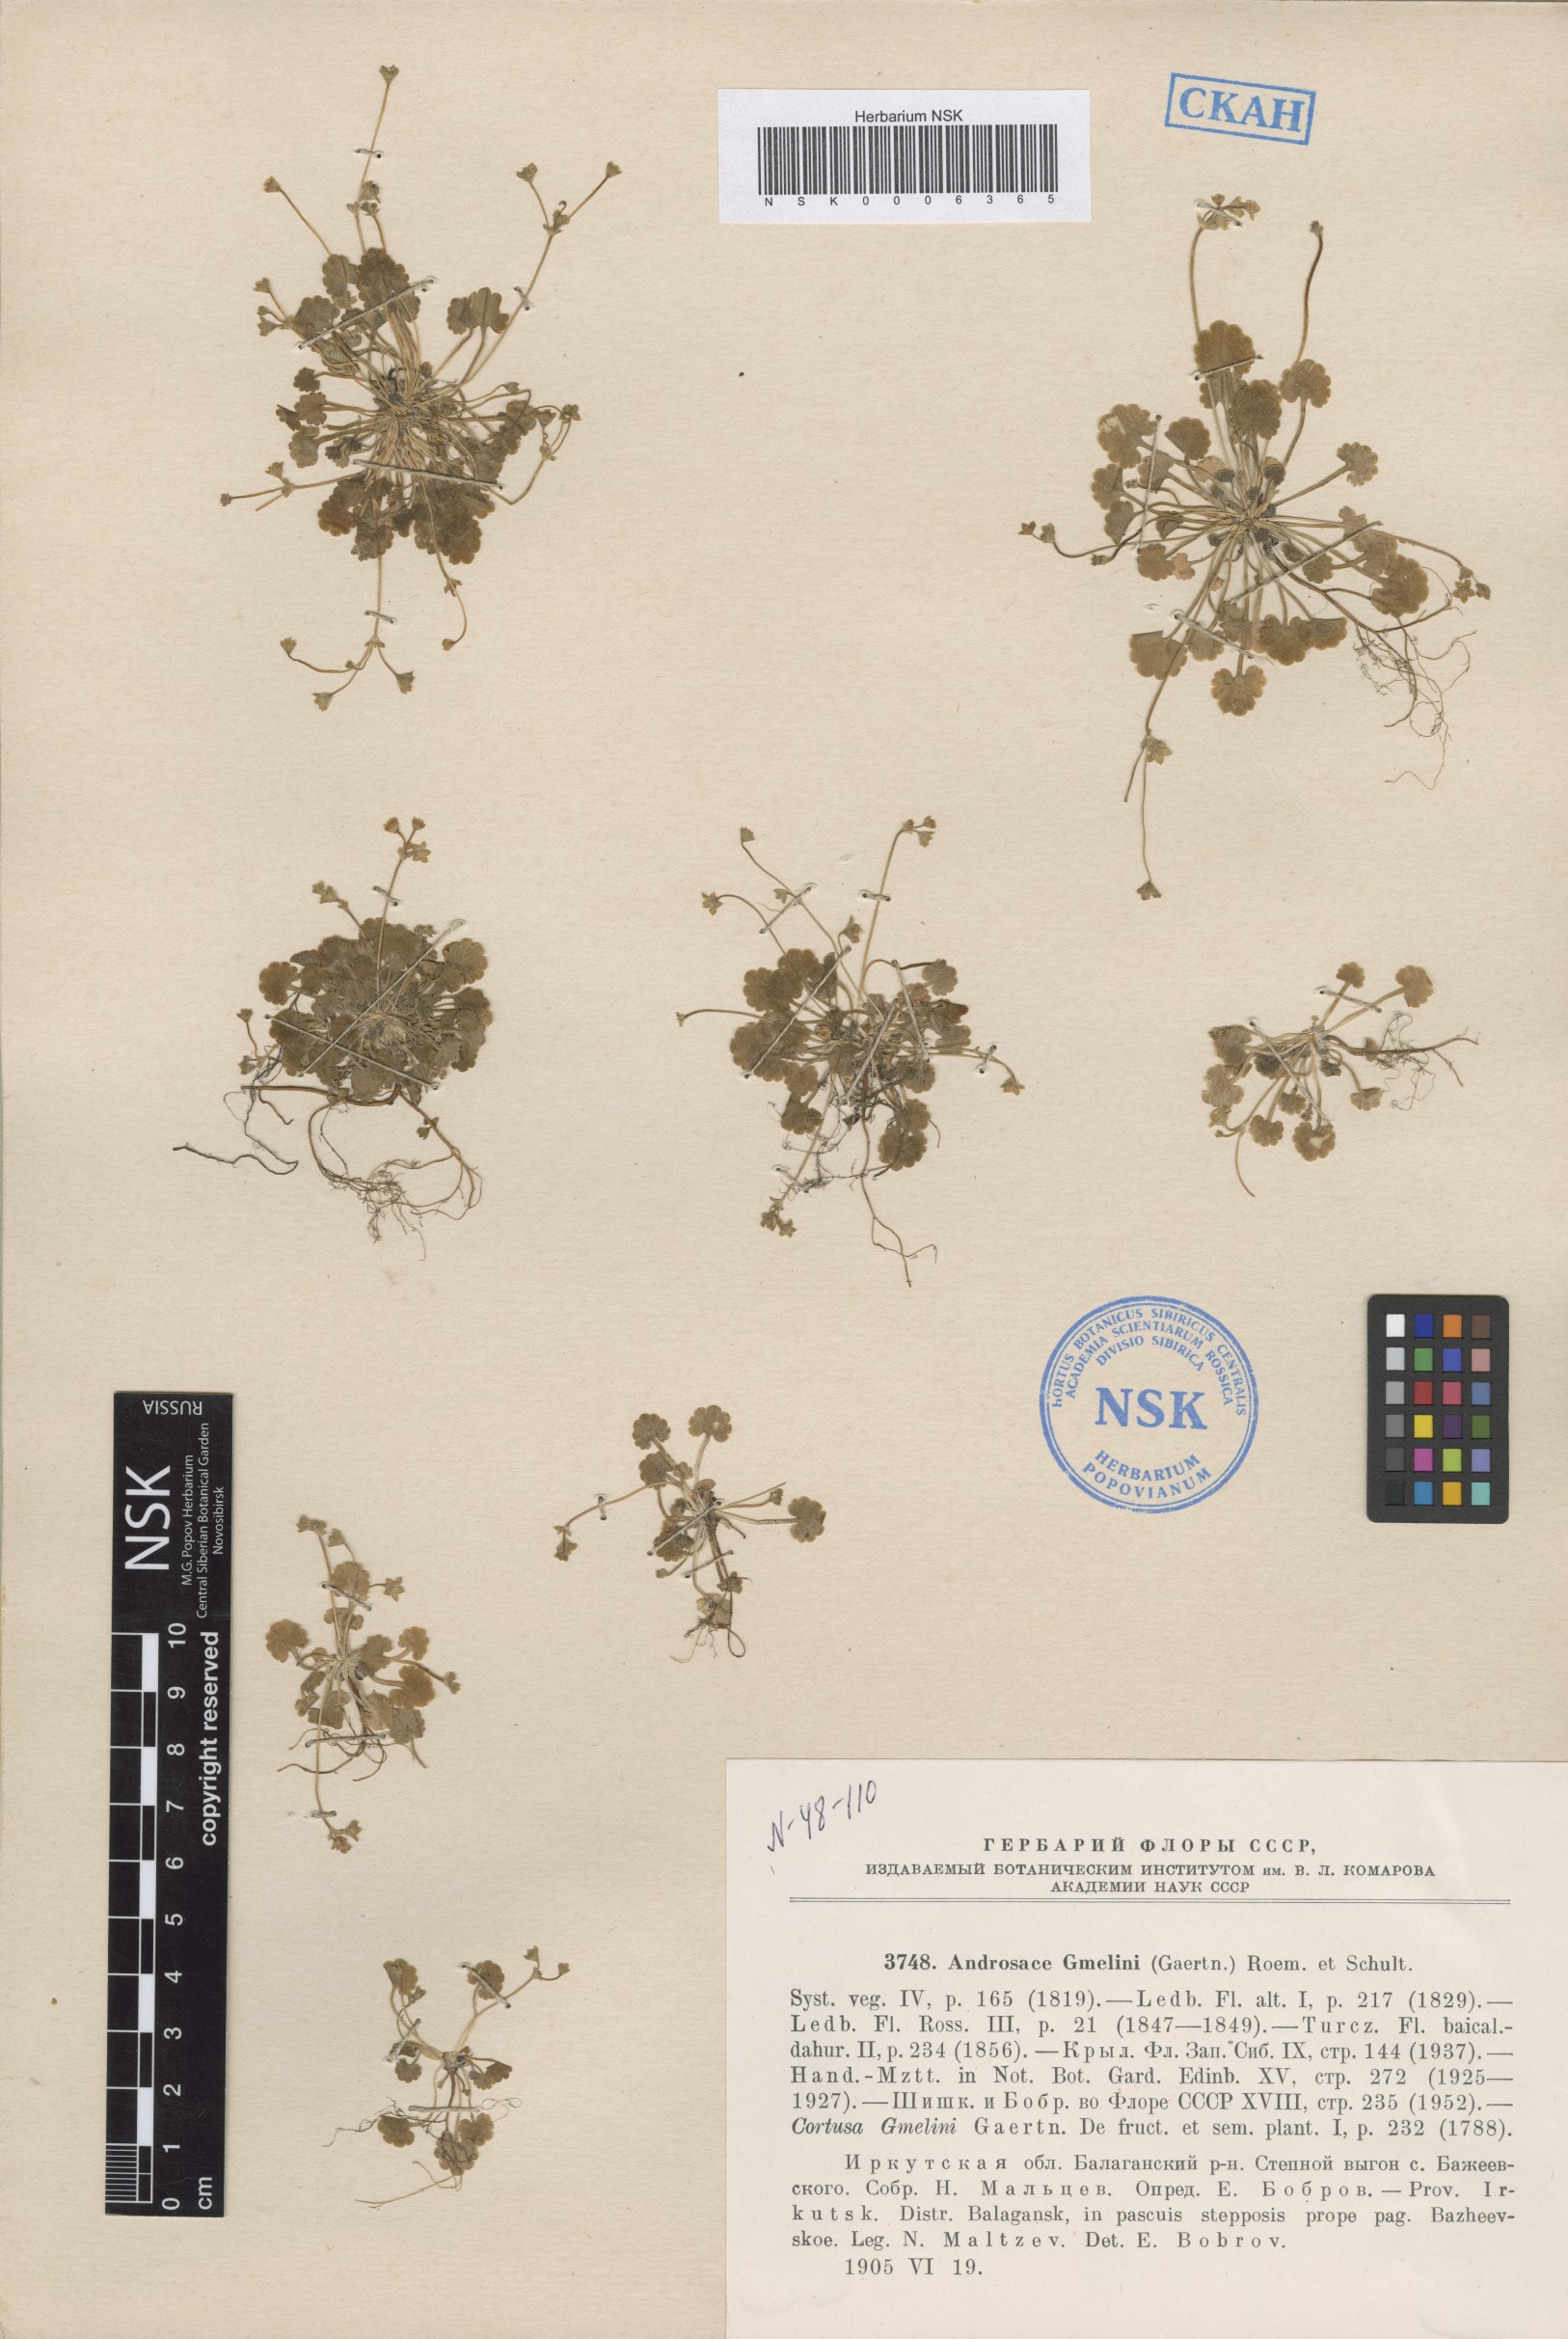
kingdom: Plantae
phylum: Tracheophyta
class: Magnoliopsida
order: Ericales
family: Primulaceae
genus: Androsace
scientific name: Androsace gmelinii
